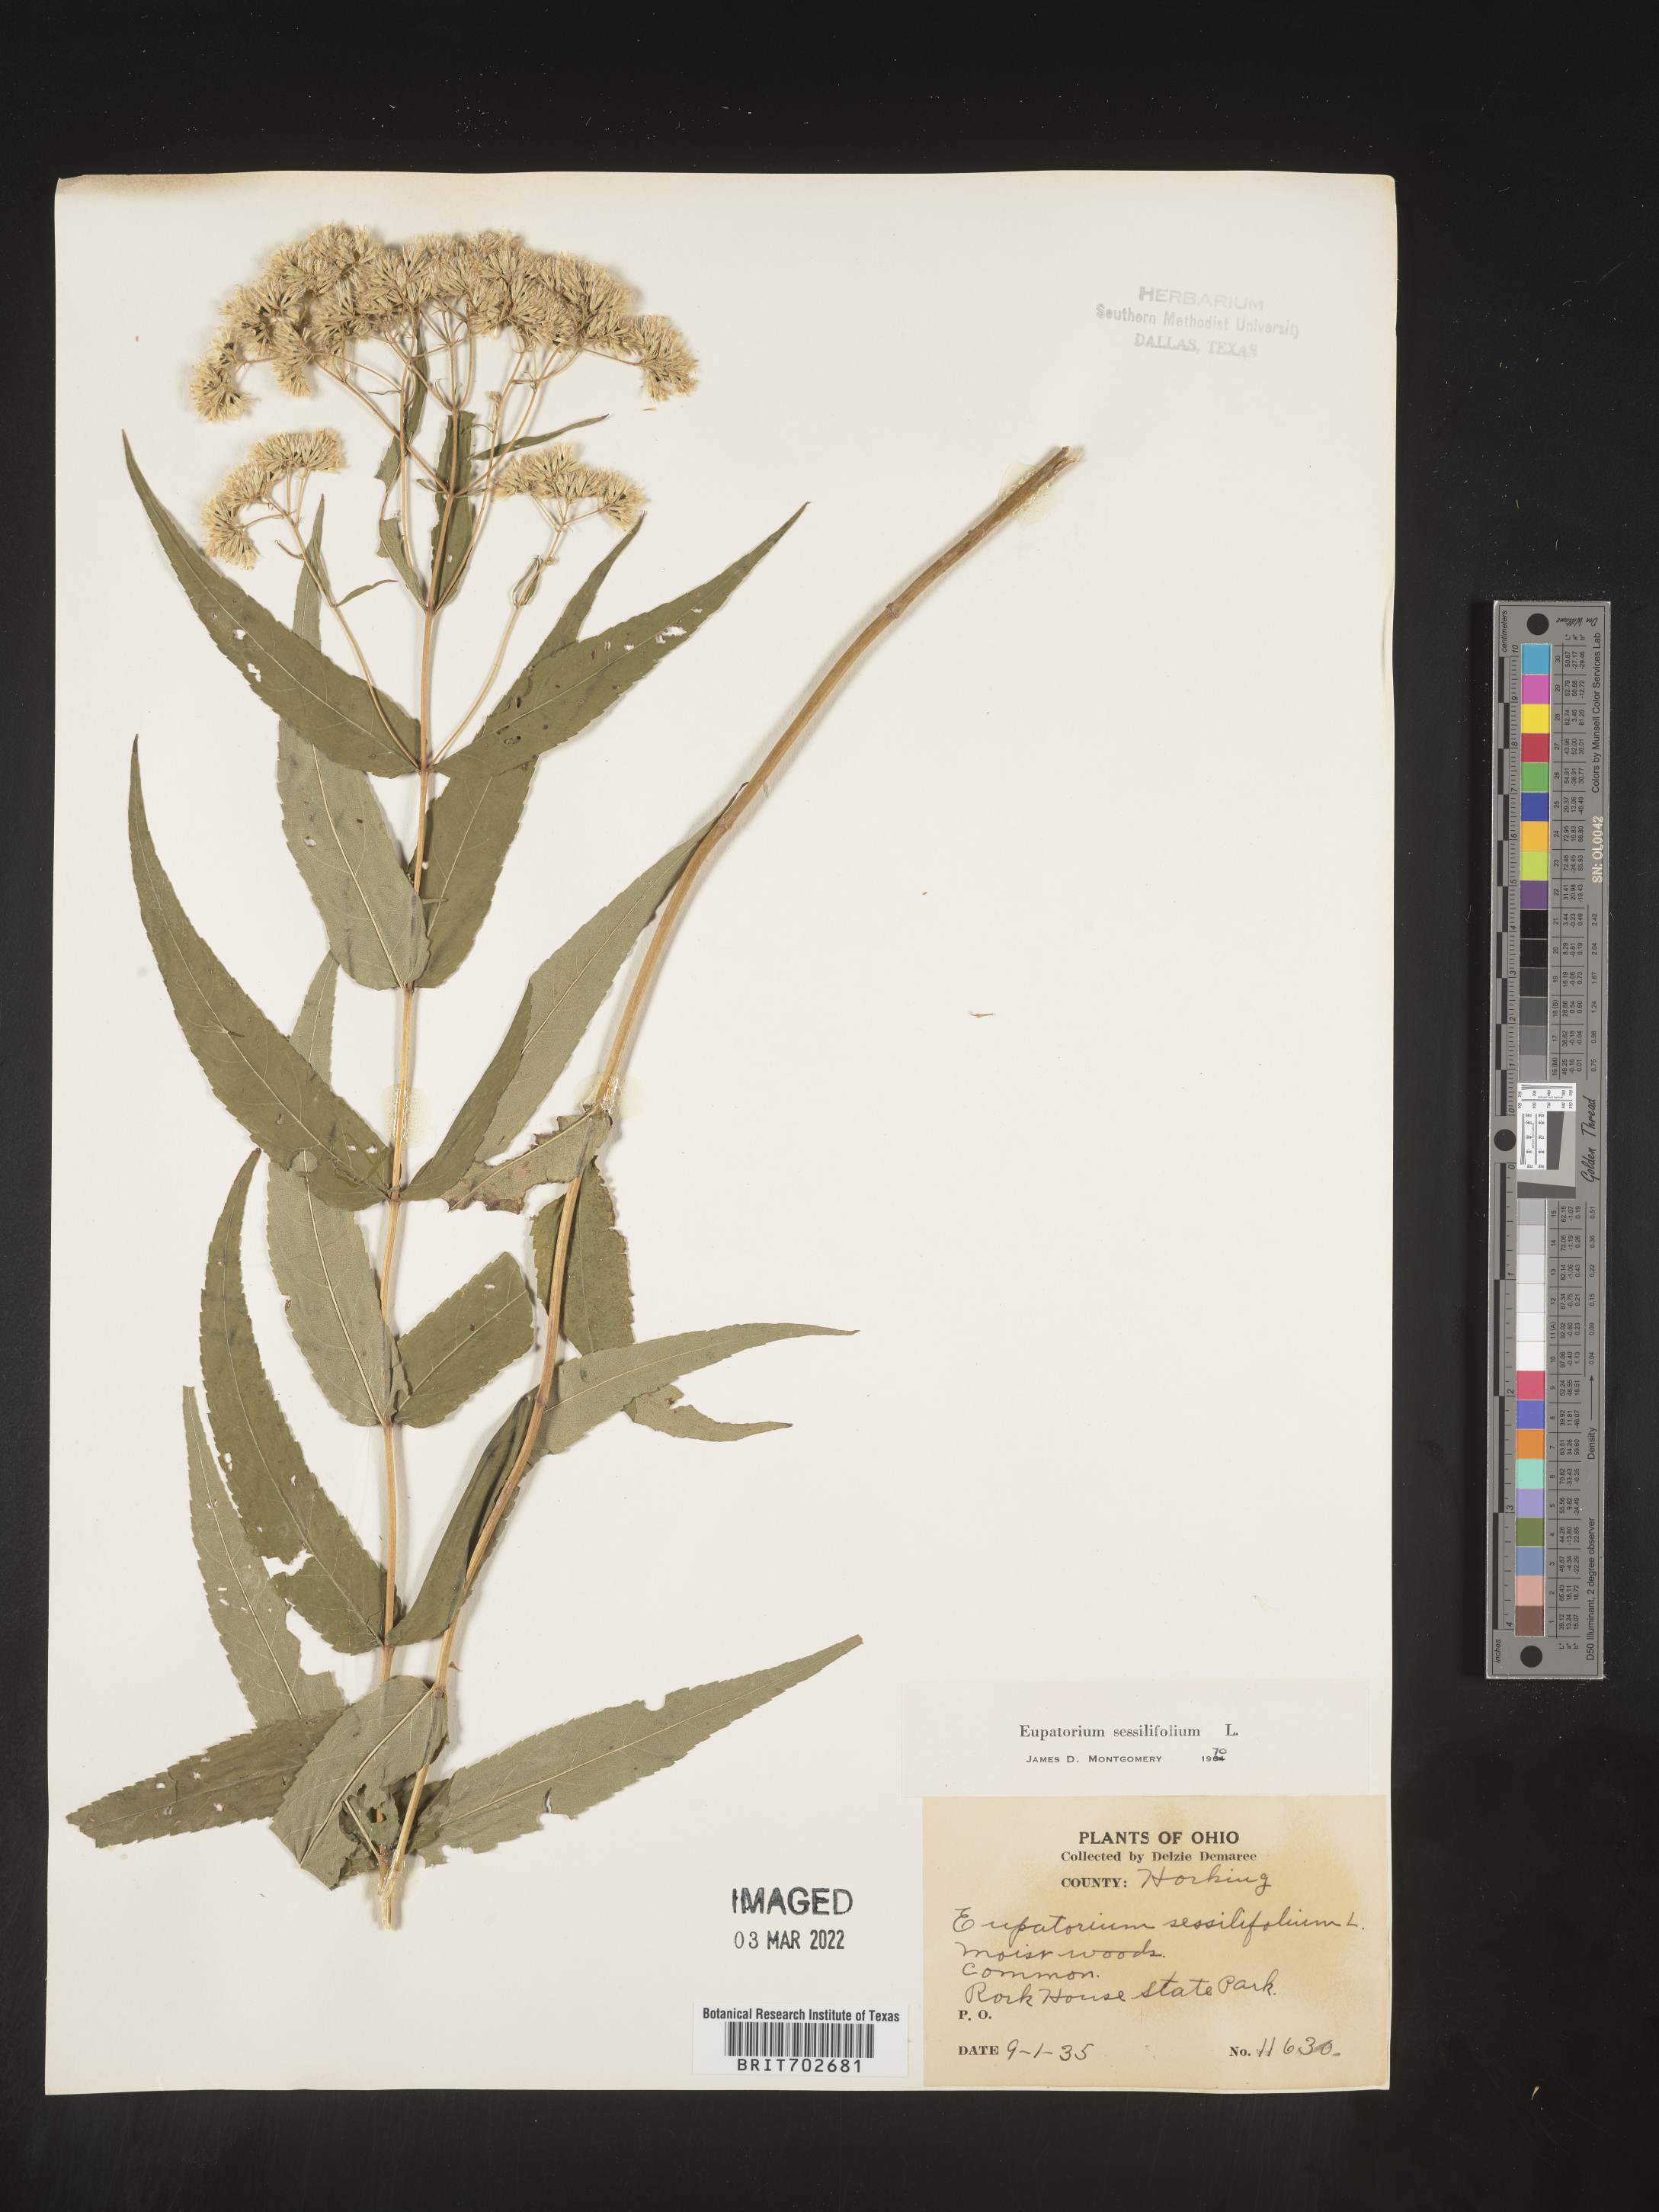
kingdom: Plantae
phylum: Tracheophyta
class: Magnoliopsida
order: Asterales
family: Asteraceae
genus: Eupatorium
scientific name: Eupatorium sessilifolium
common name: Upland boneset
